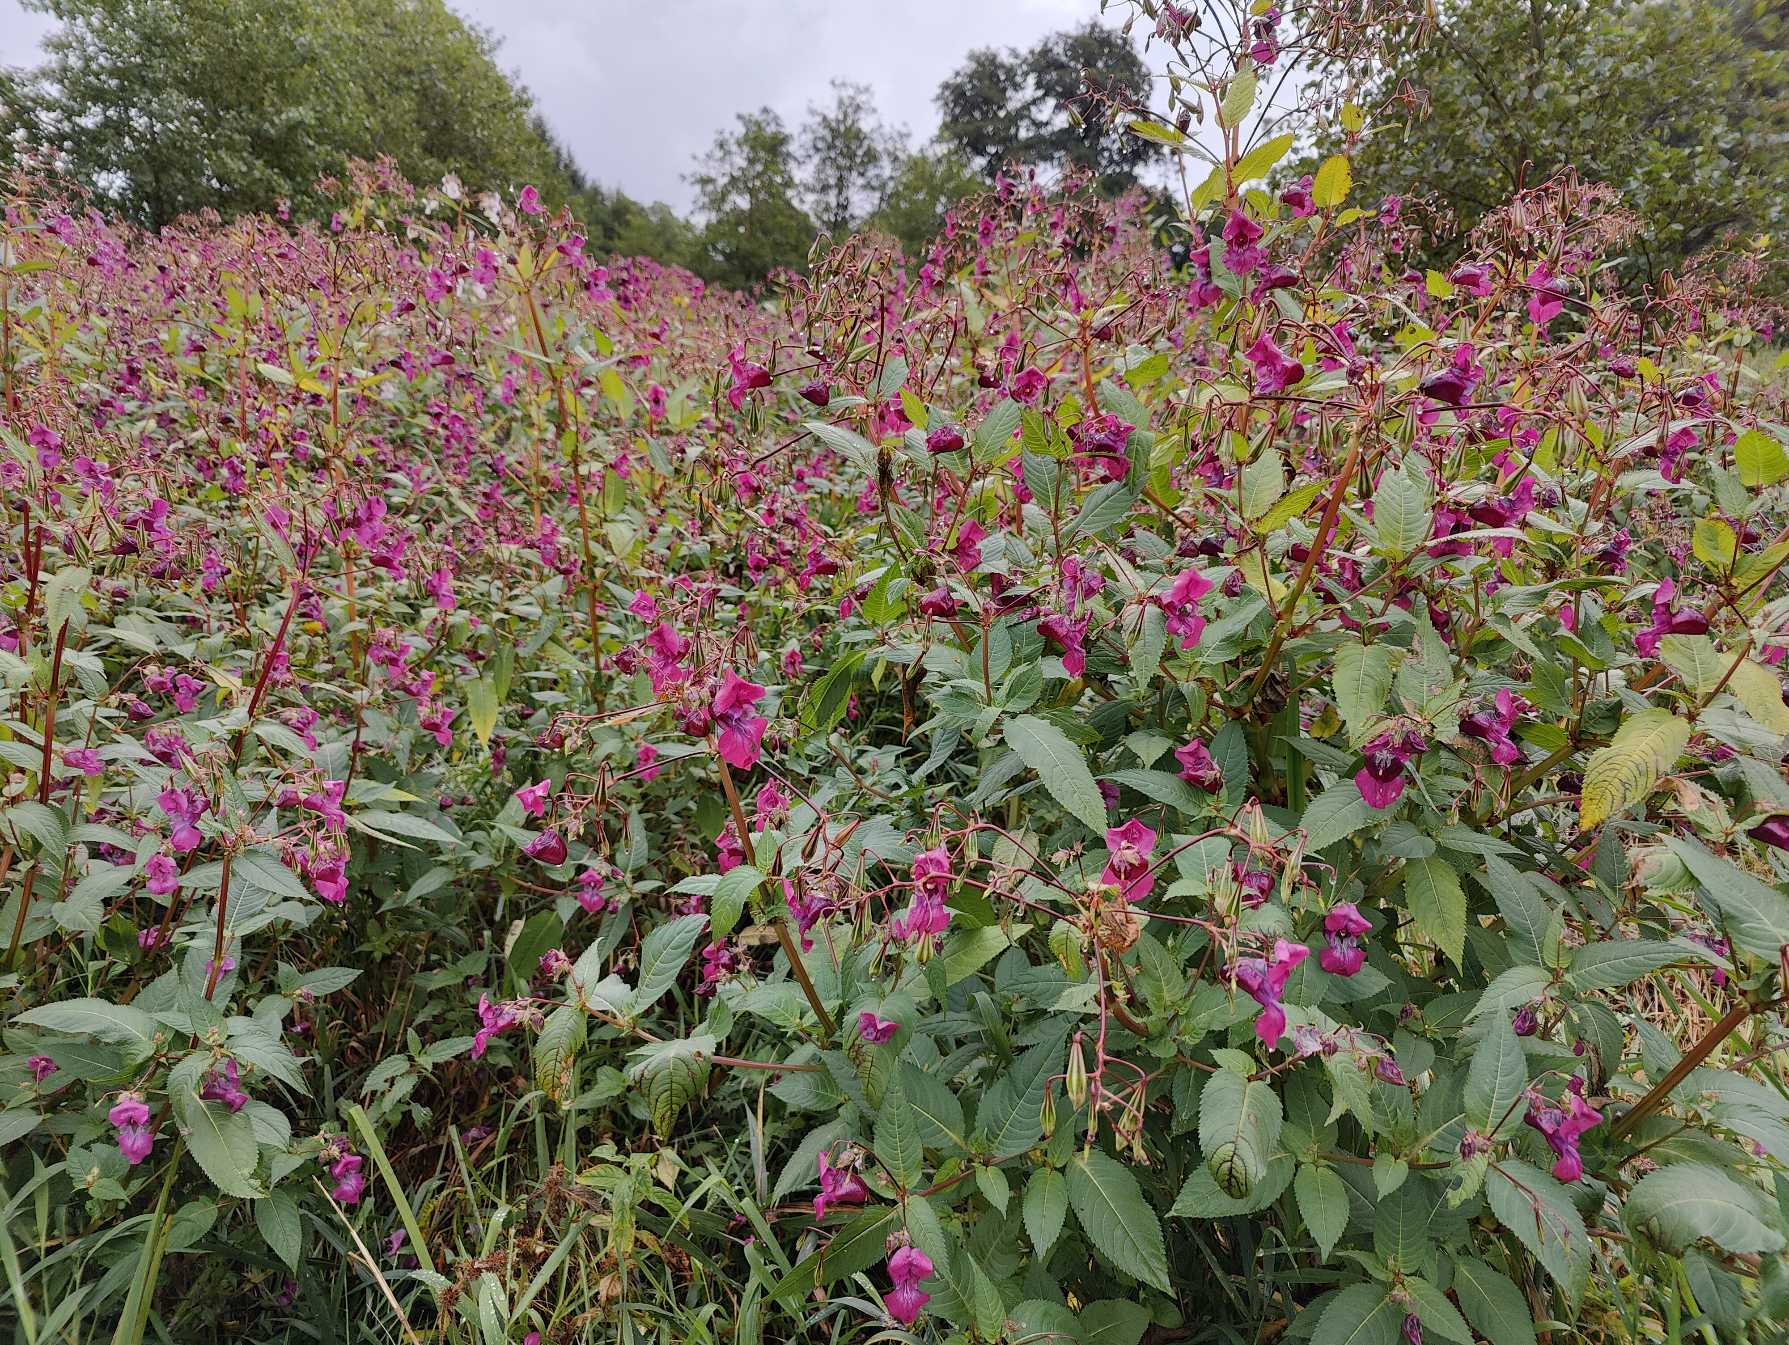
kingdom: Plantae
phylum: Tracheophyta
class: Magnoliopsida
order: Ericales
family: Balsaminaceae
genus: Impatiens
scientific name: Impatiens glandulifera
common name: Kæmpe-balsamin
